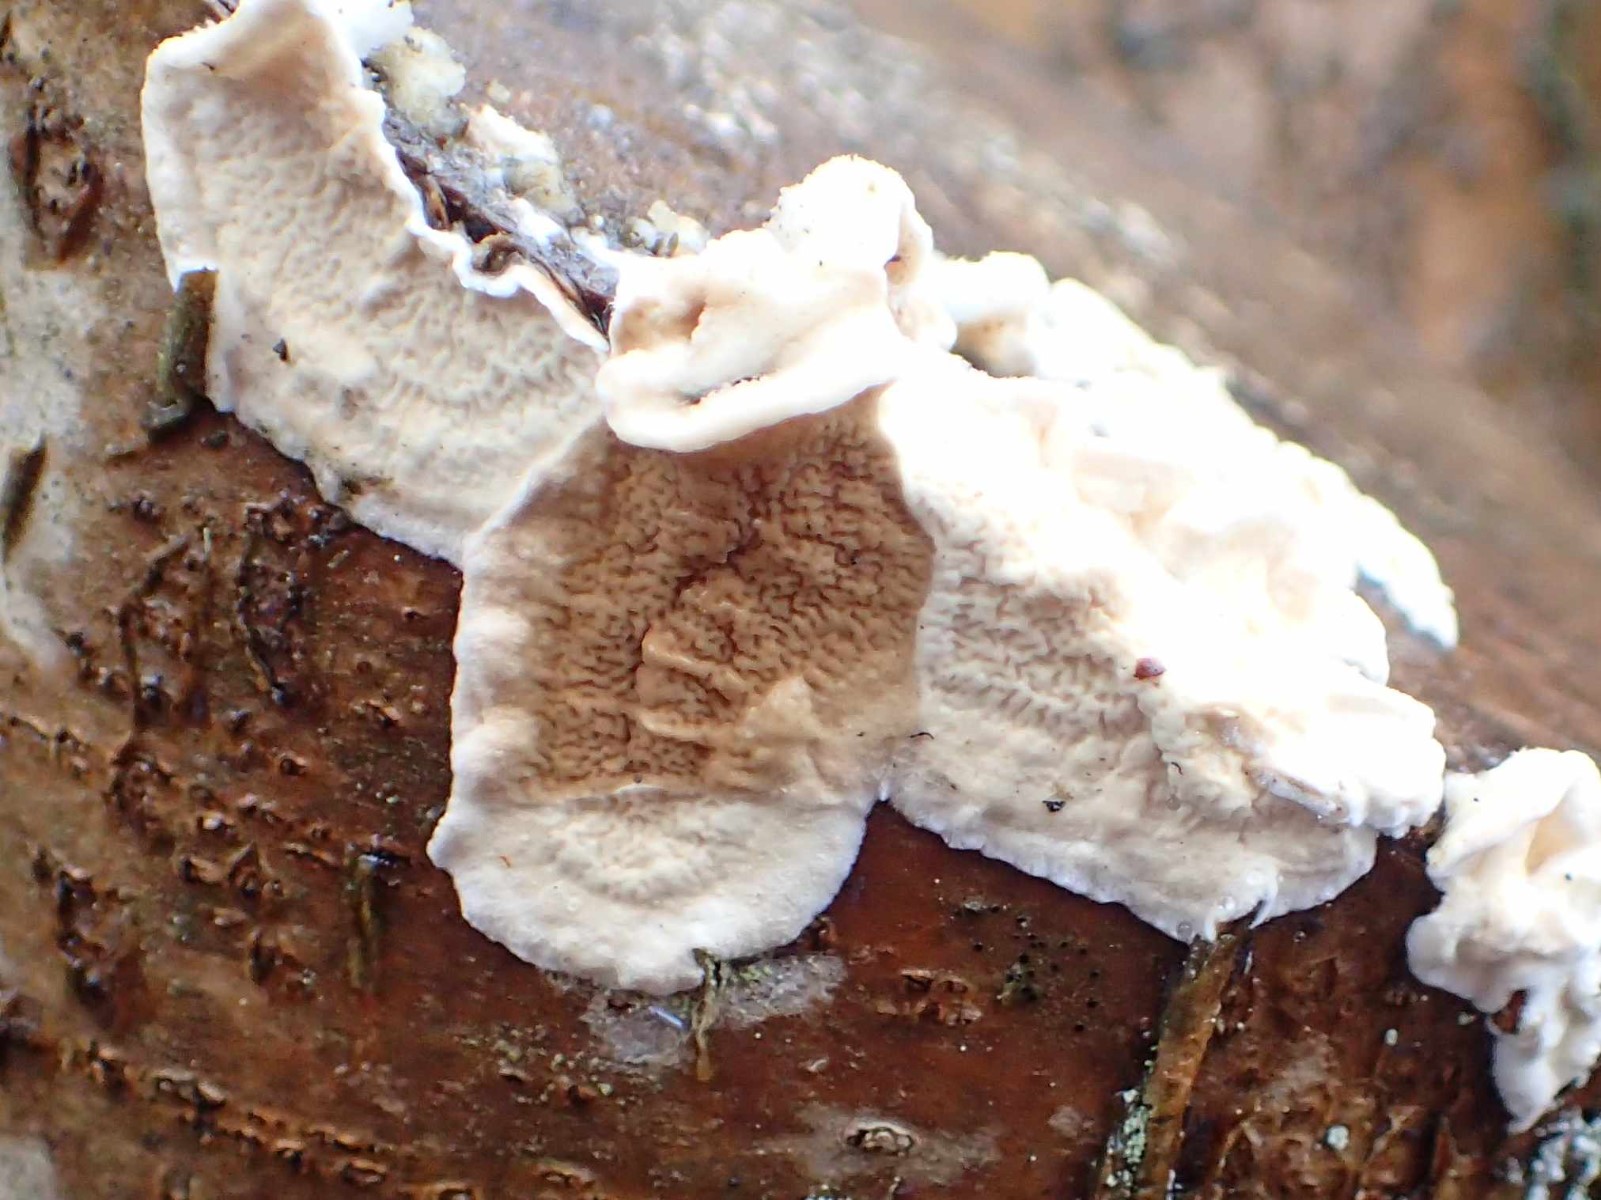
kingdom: Fungi
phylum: Basidiomycota
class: Agaricomycetes
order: Polyporales
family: Irpicaceae
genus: Byssomerulius
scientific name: Byssomerulius corium
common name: læder-åresvamp
